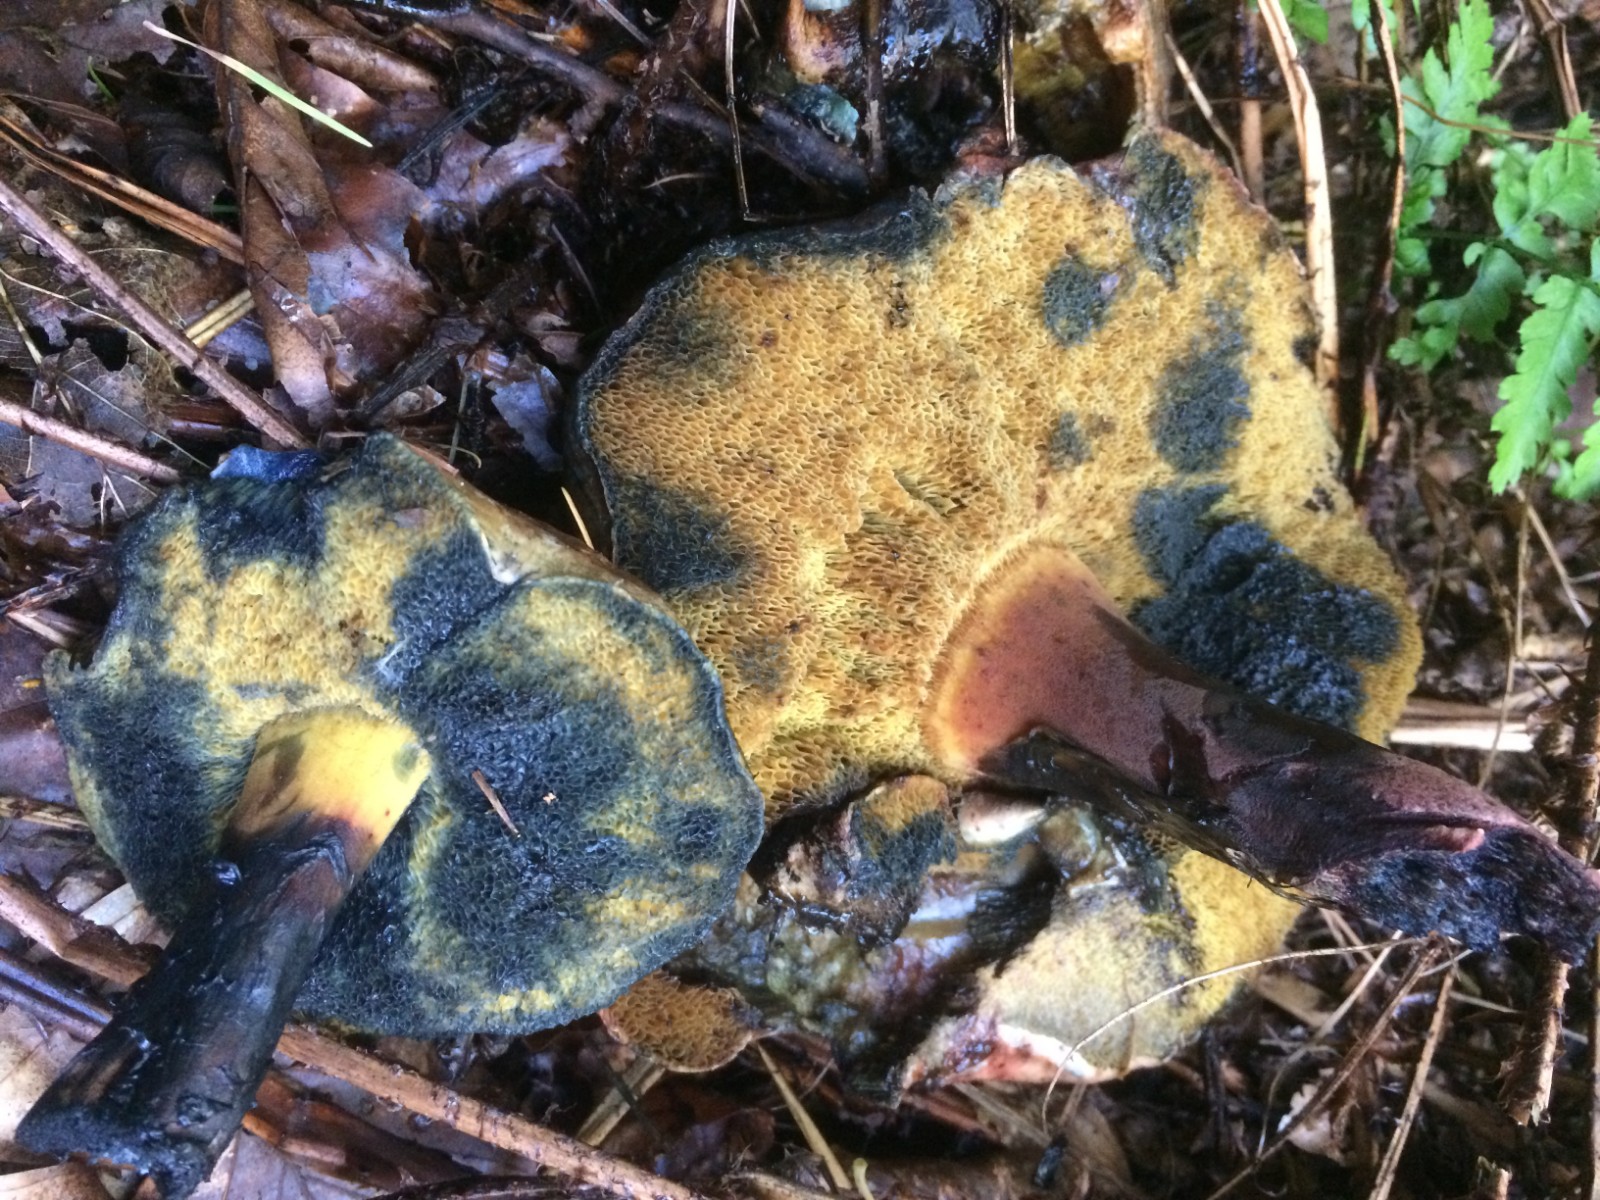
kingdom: Fungi
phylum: Basidiomycota
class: Agaricomycetes
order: Boletales
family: Boletaceae
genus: Cyanoboletus
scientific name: Cyanoboletus pulverulentus
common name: sortblånende rørhat
